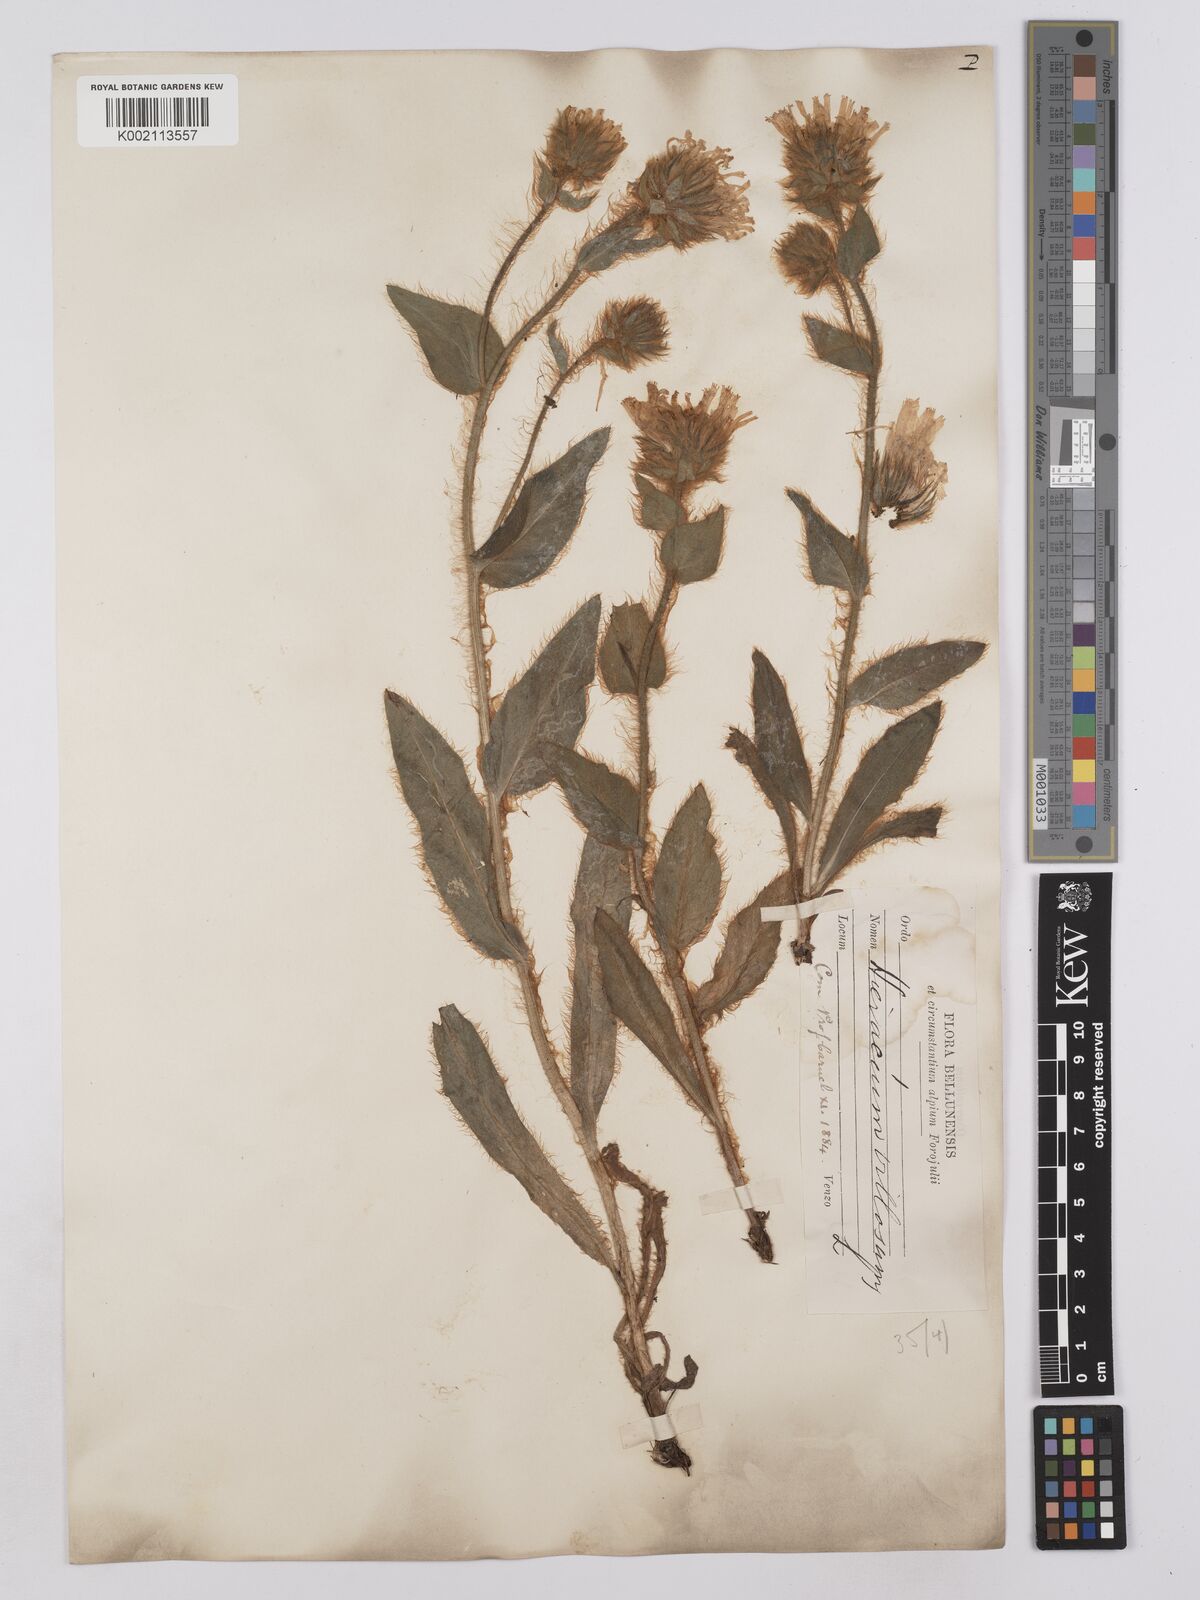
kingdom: Plantae
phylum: Tracheophyta
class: Magnoliopsida
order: Asterales
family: Asteraceae
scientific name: Asteraceae
